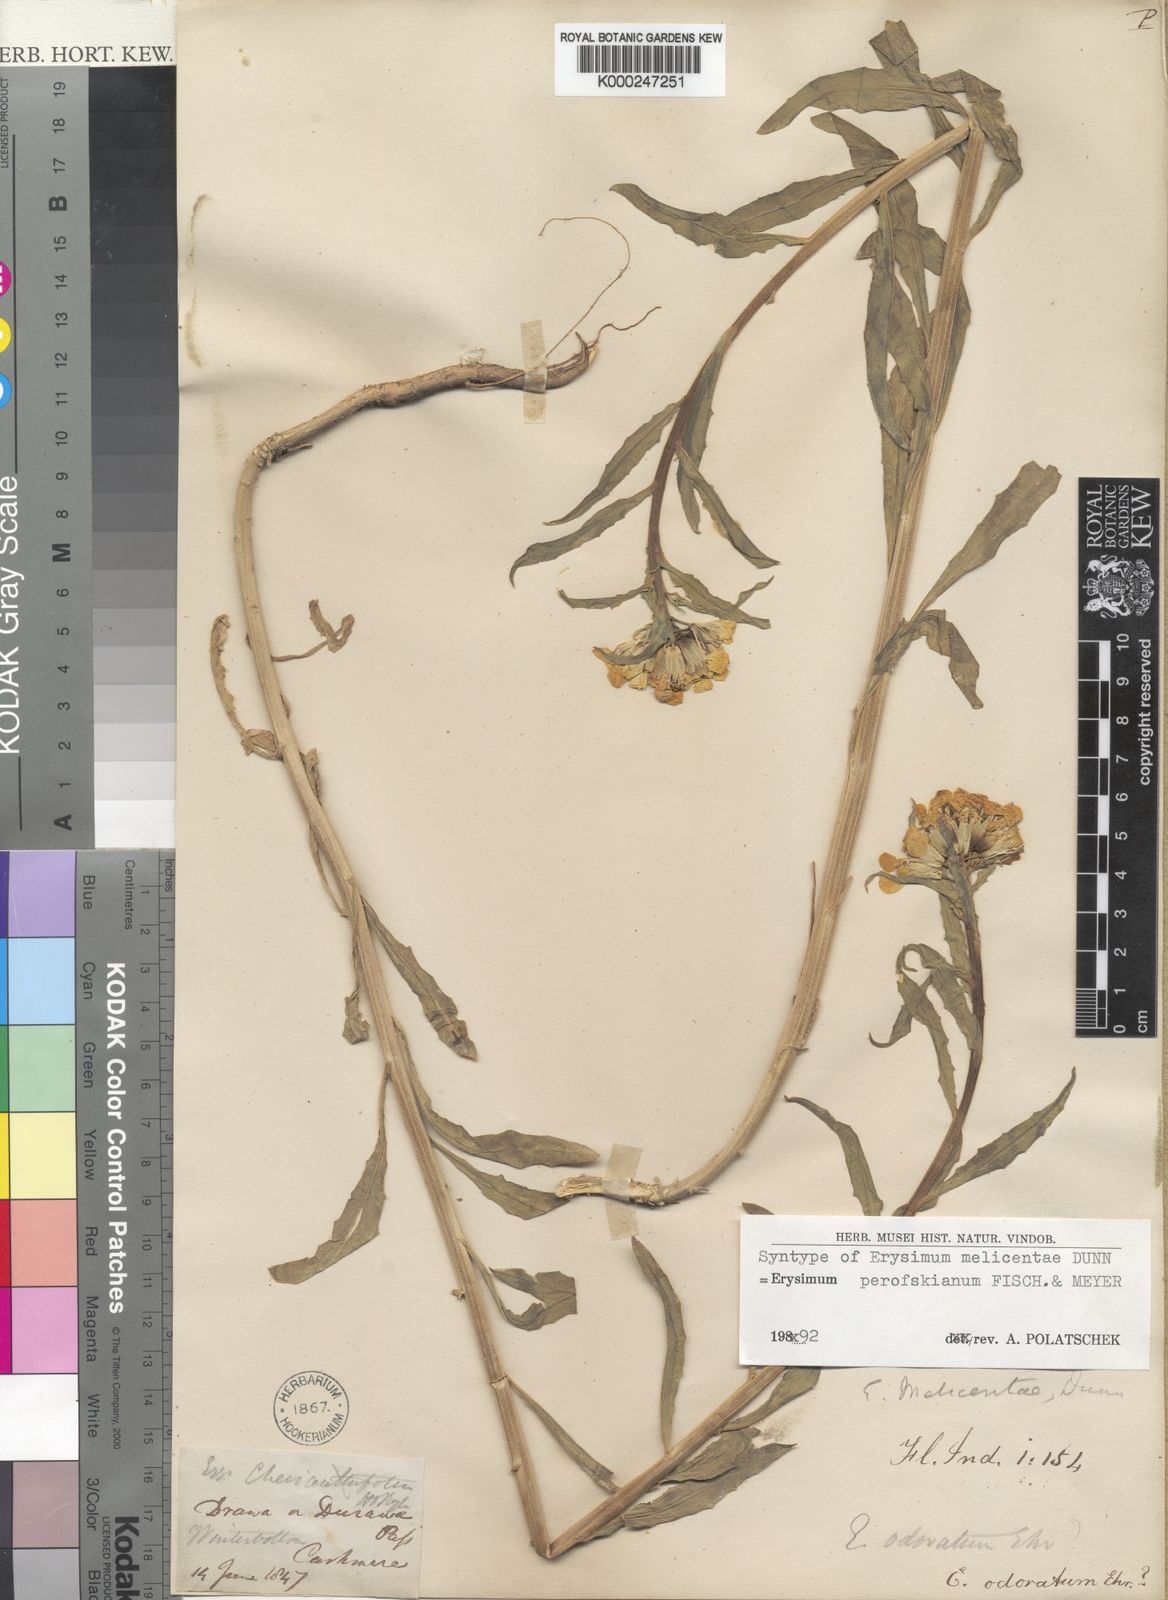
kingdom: Plantae
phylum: Tracheophyta
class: Magnoliopsida
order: Brassicales
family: Brassicaceae
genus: Erysimum
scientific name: Erysimum melicentae
